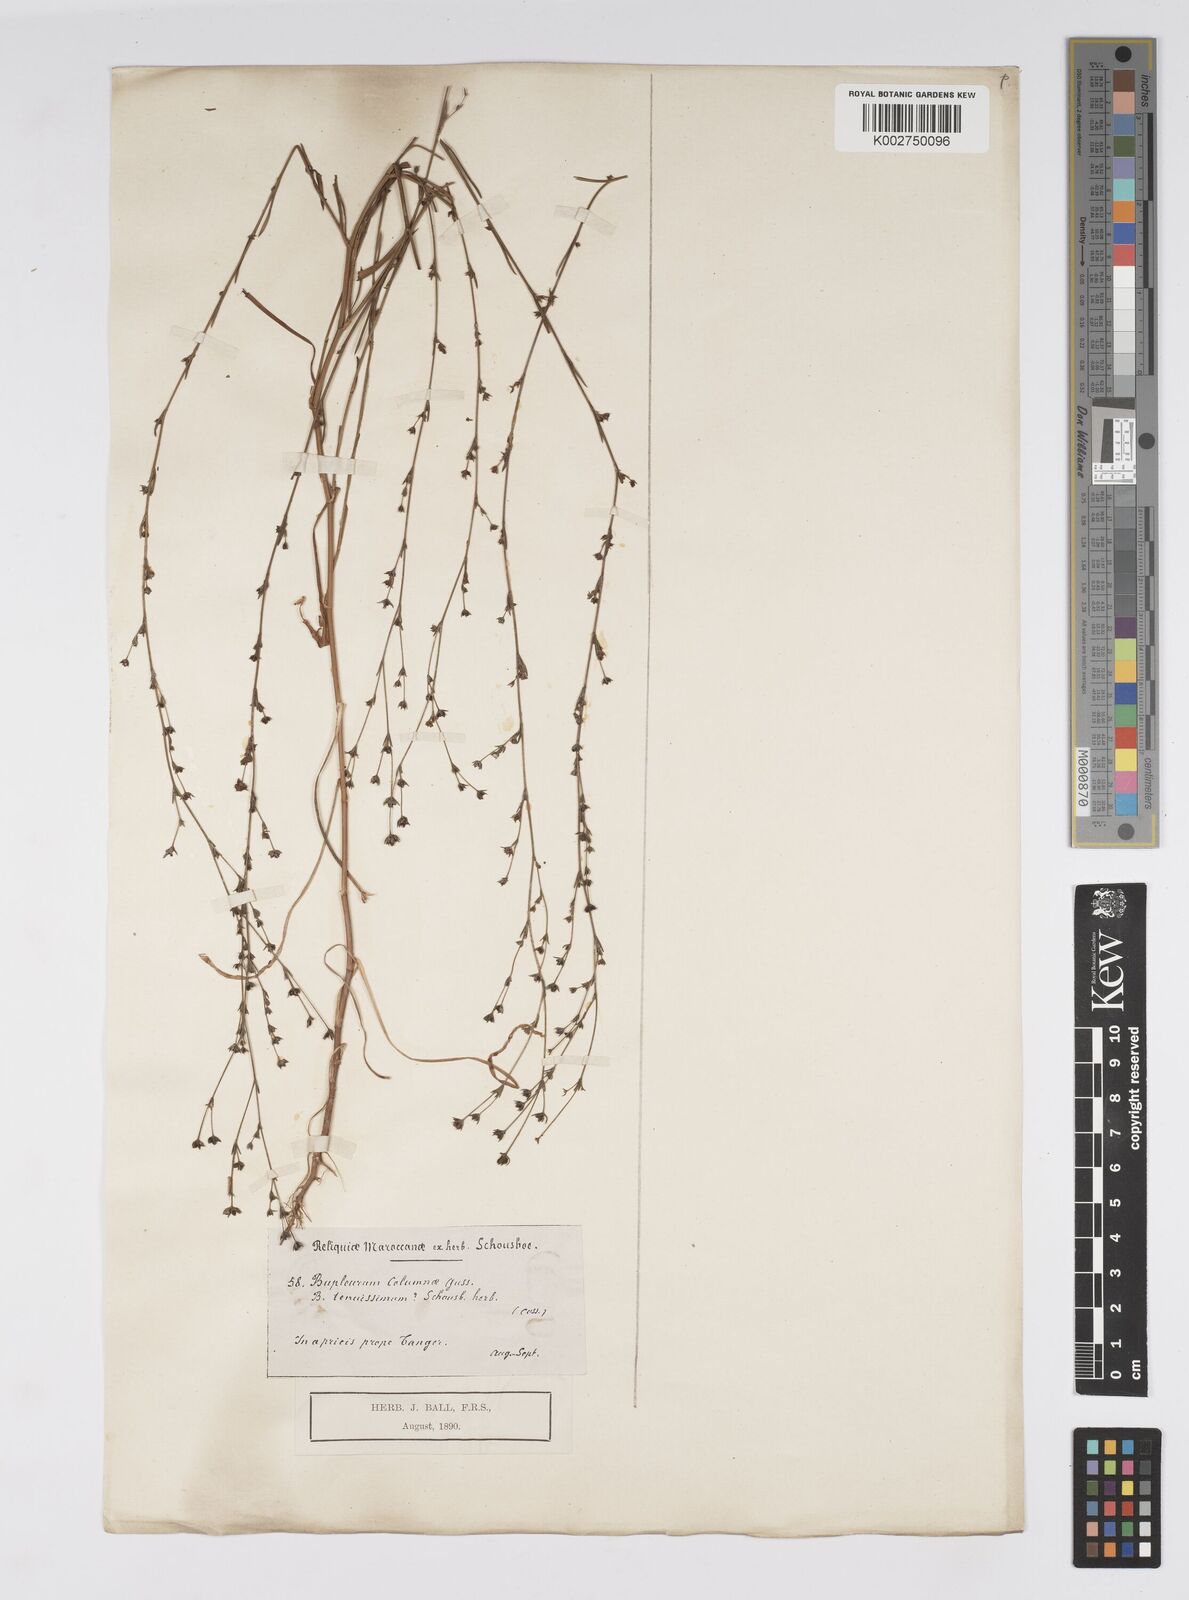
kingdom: Plantae
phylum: Tracheophyta
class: Magnoliopsida
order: Apiales
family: Apiaceae
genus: Bupleurum
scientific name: Bupleurum tenuissimum
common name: Slender hare's-ear
